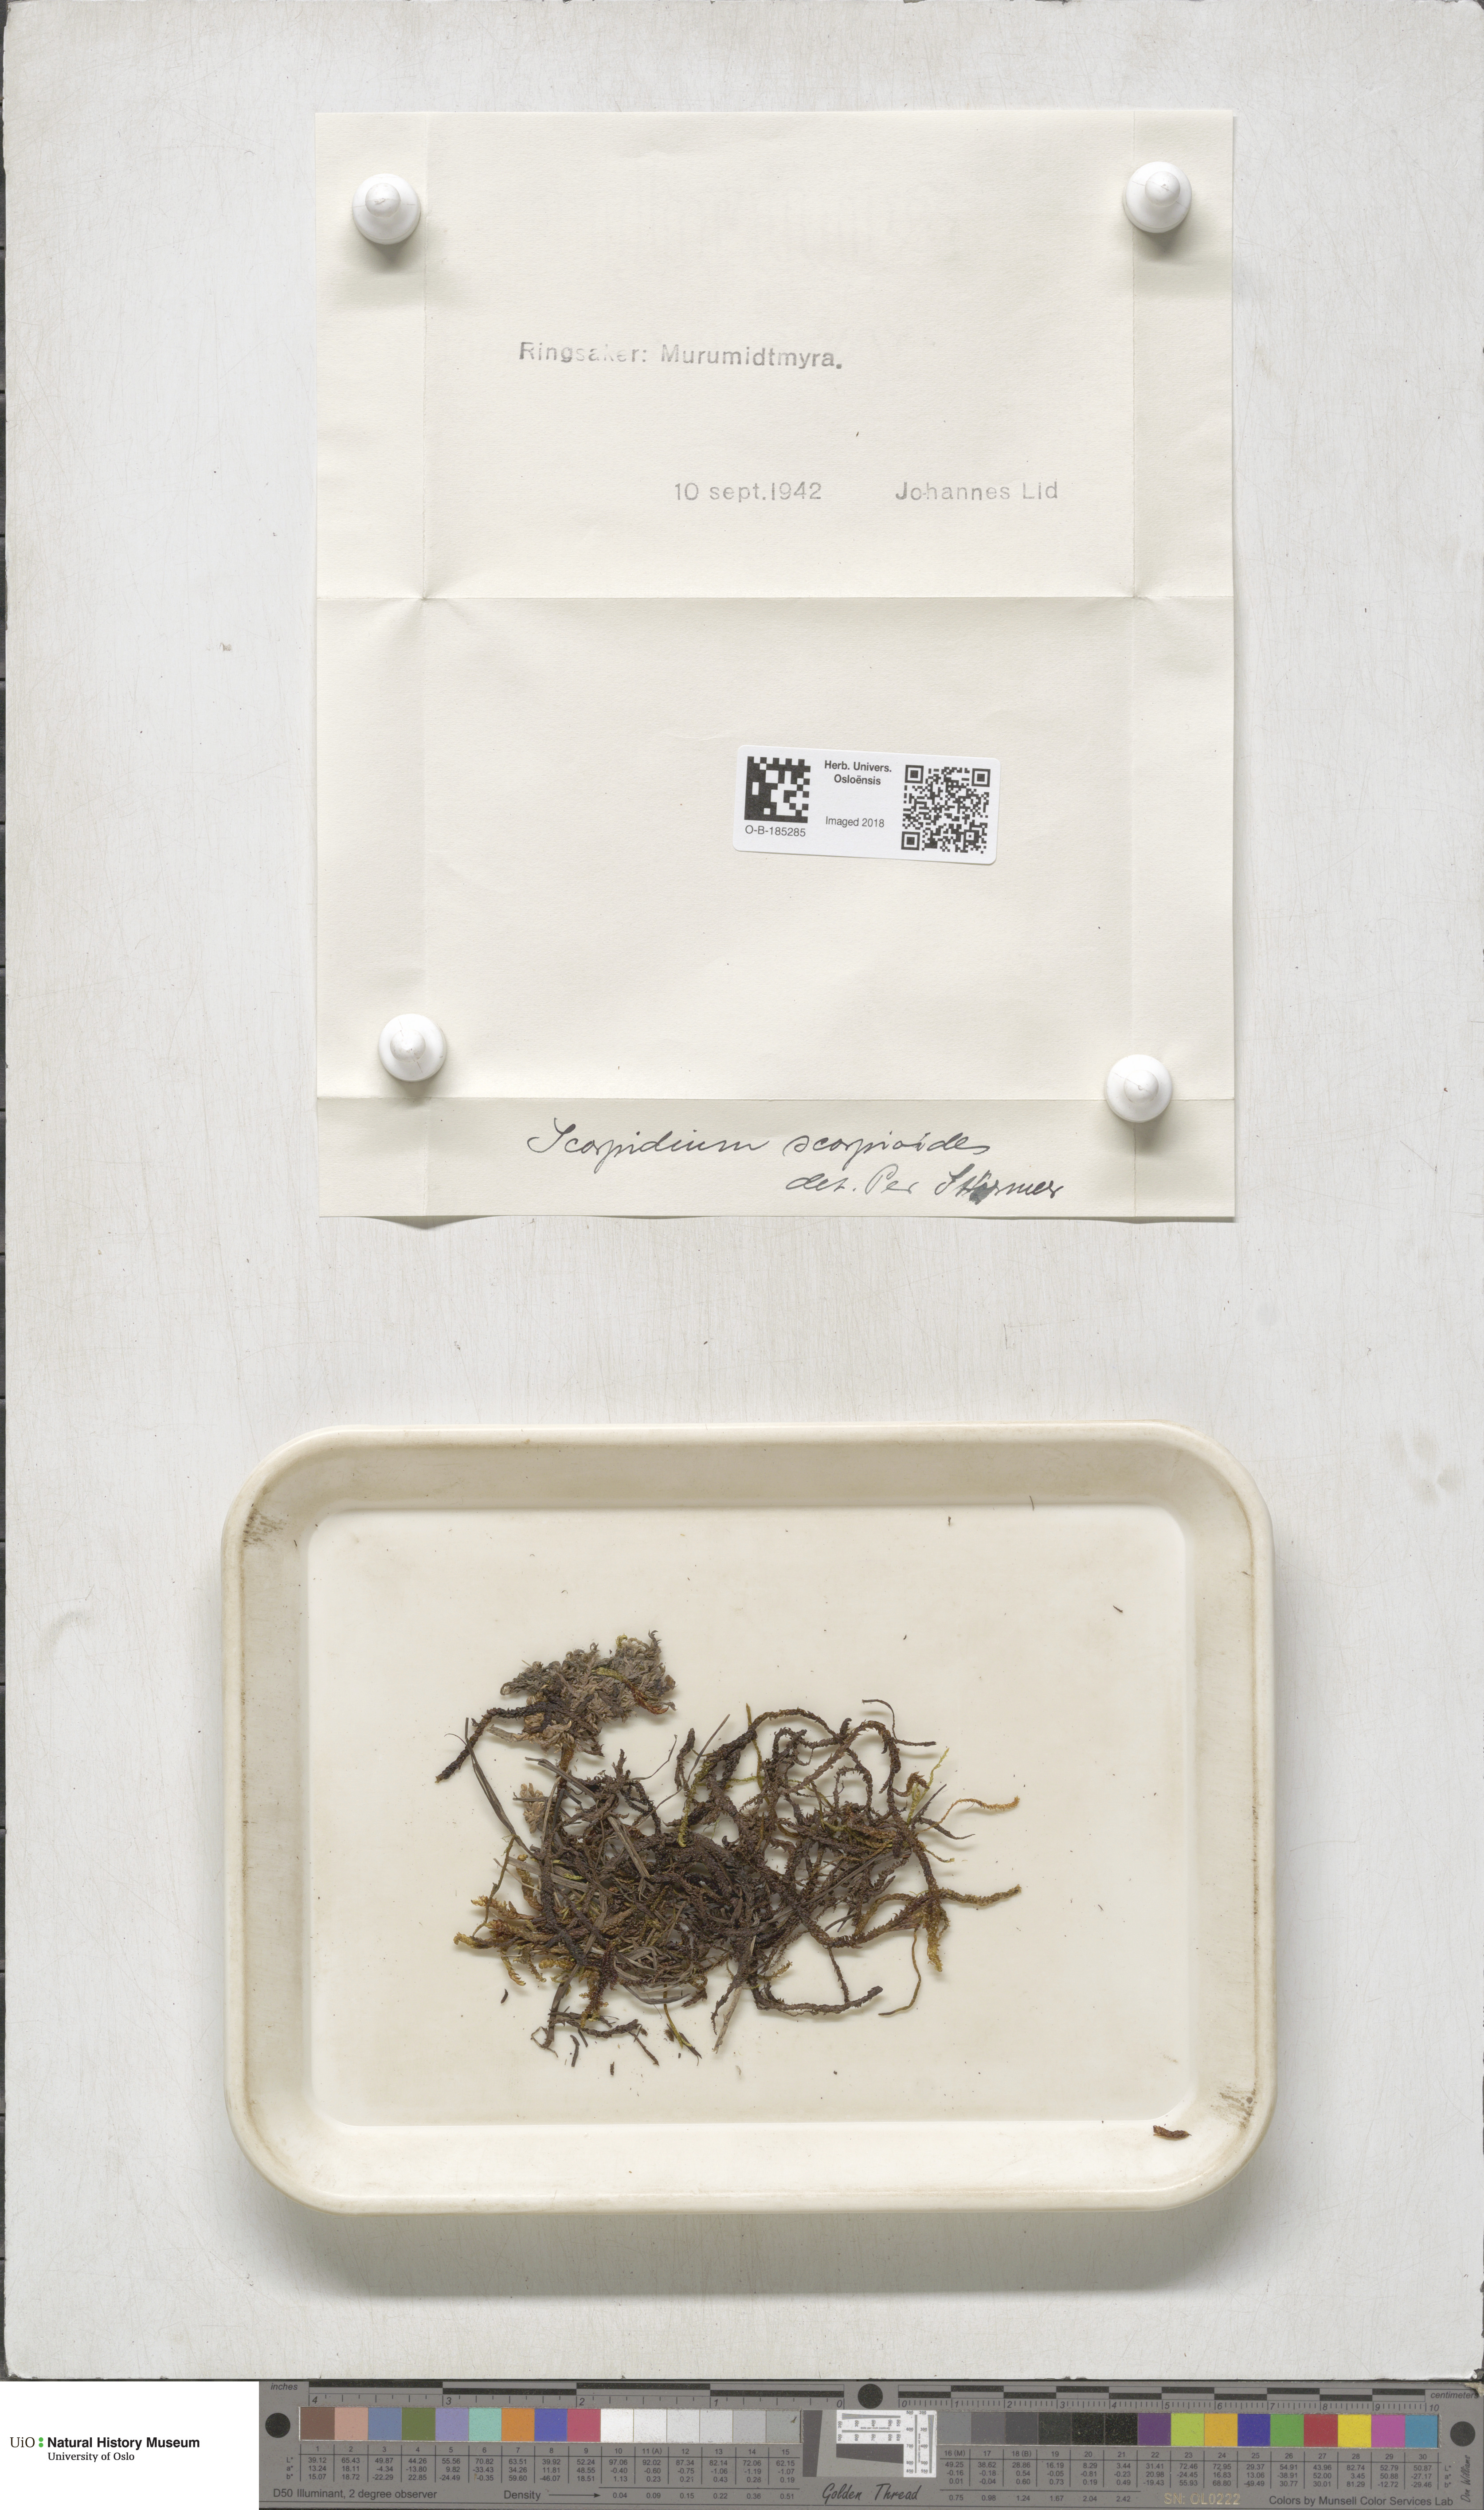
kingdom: Plantae
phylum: Bryophyta
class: Bryopsida
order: Hypnales
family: Scorpidiaceae
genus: Scorpidium
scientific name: Scorpidium scorpioides
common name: Hooked scorpion moss
